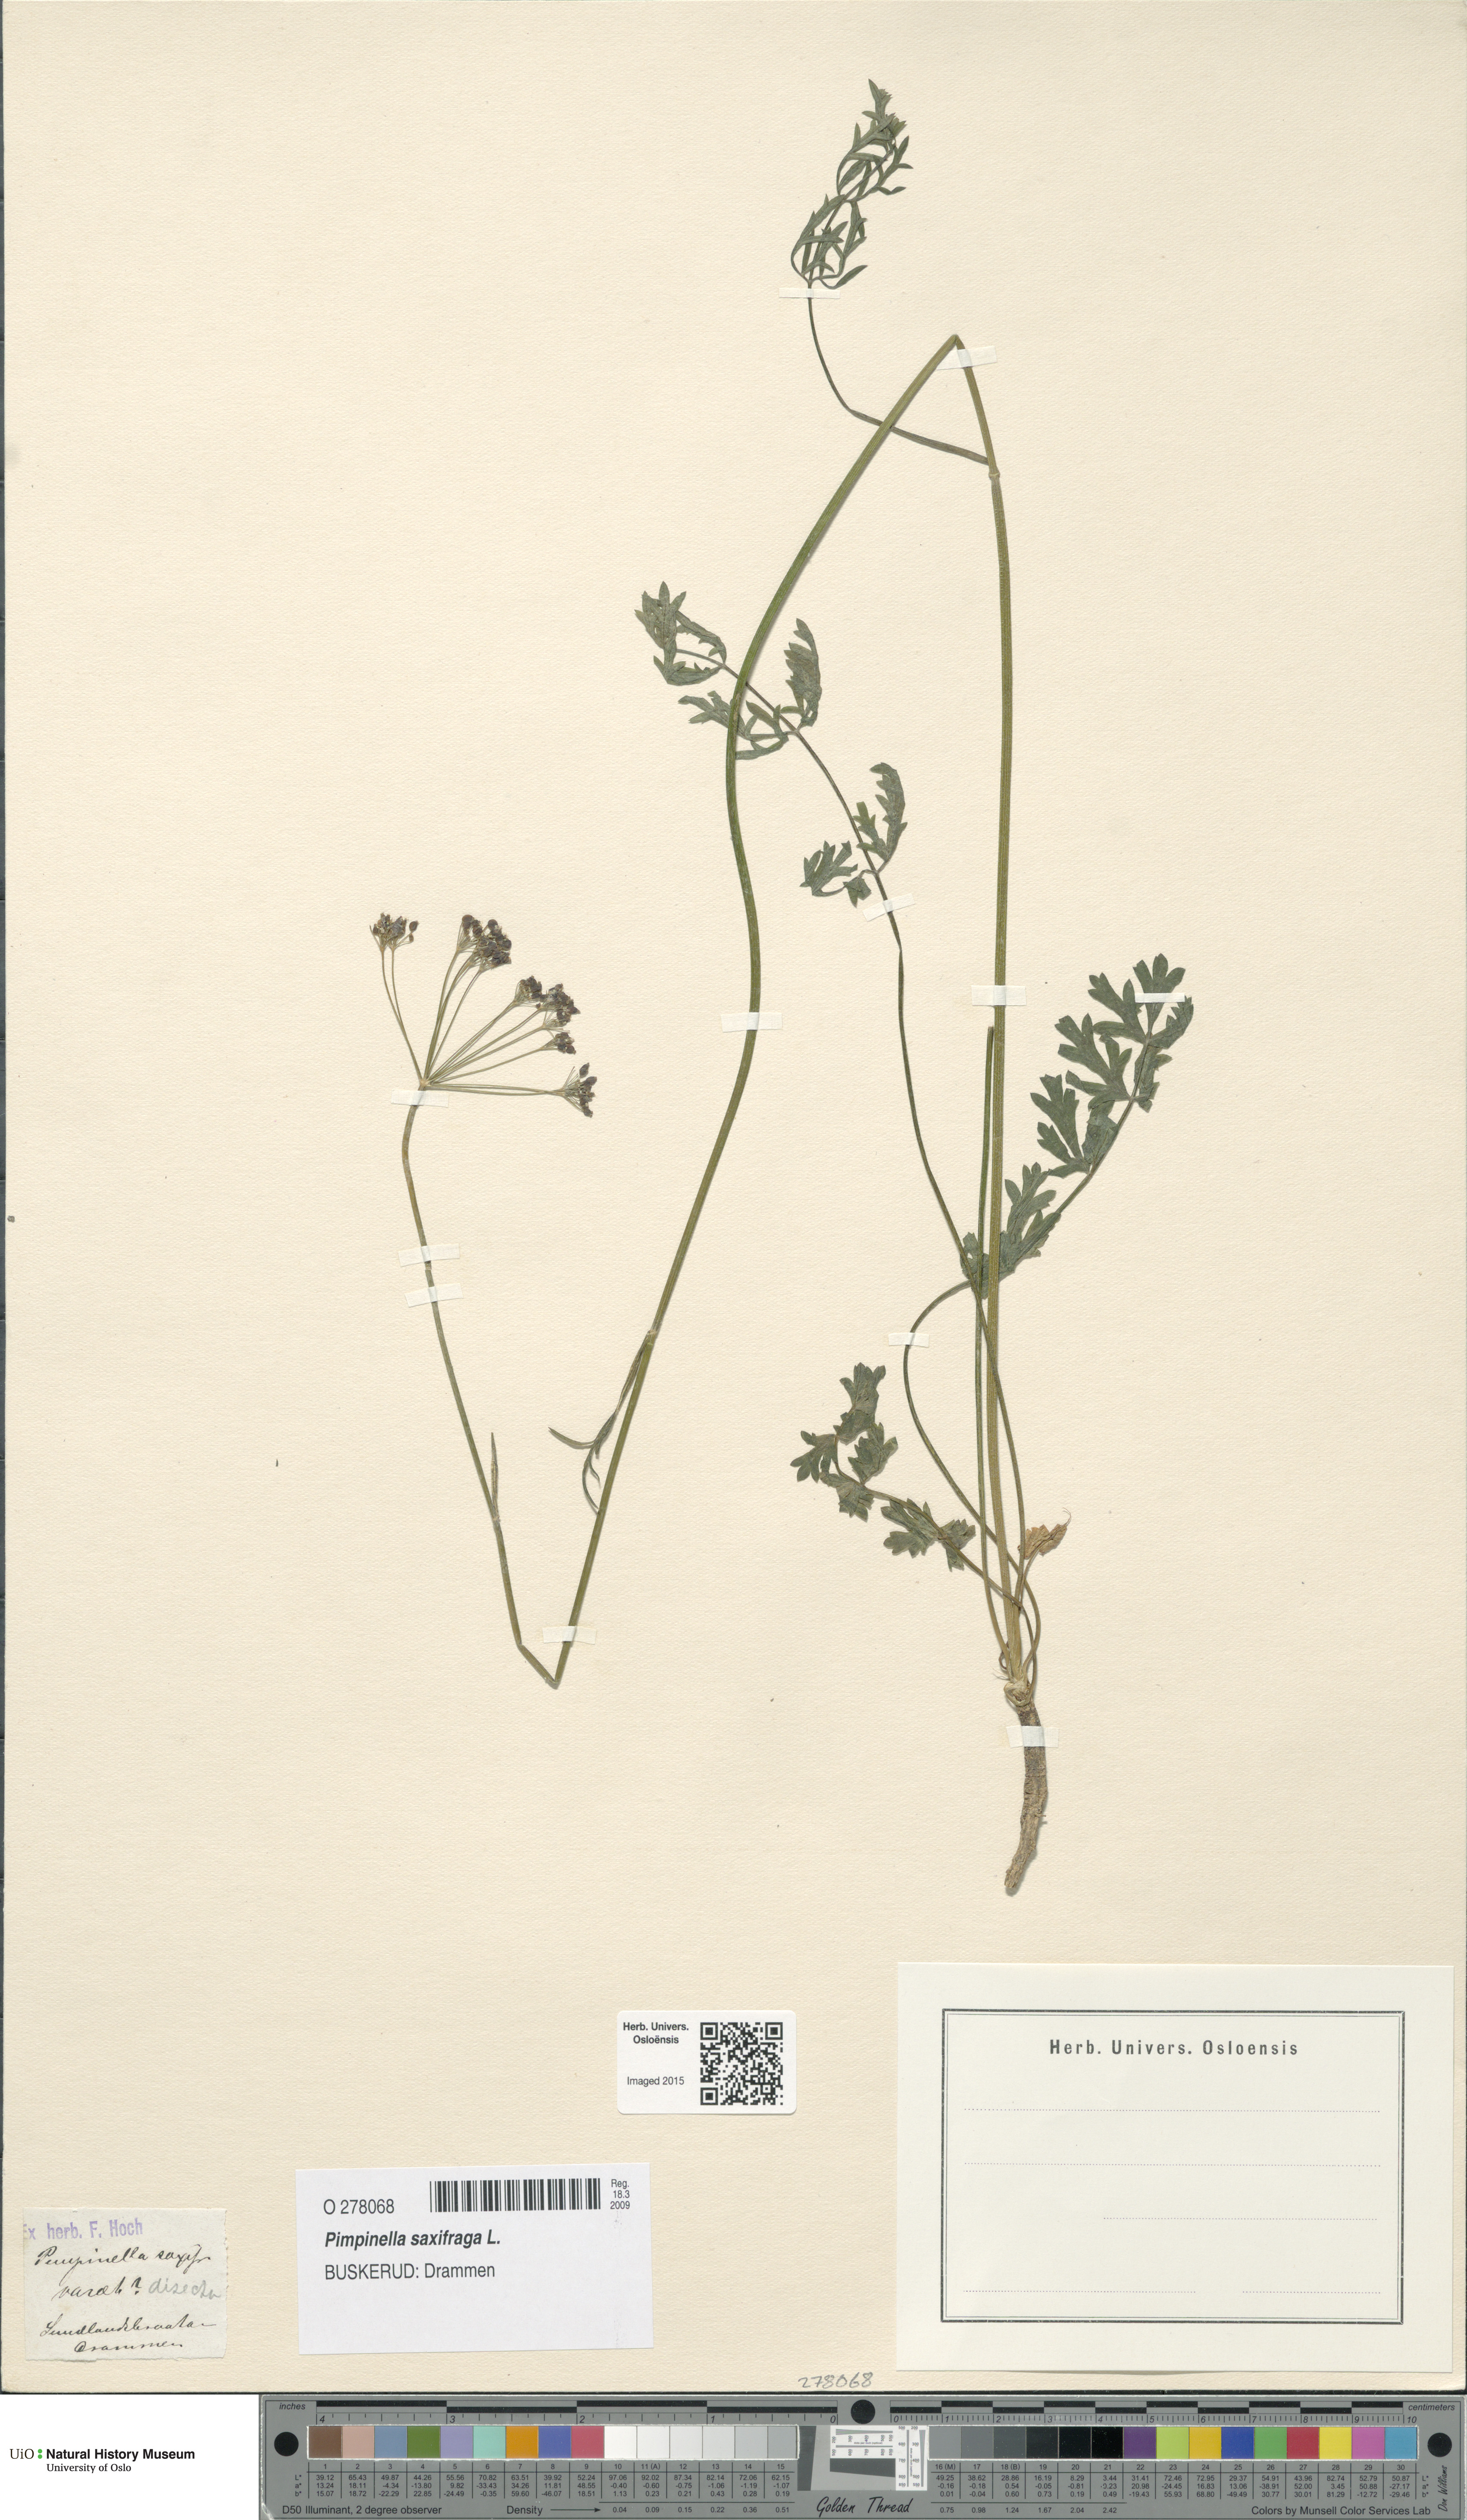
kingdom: Plantae
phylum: Tracheophyta
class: Magnoliopsida
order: Apiales
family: Apiaceae
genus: Pimpinella
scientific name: Pimpinella saxifraga
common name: Burnet-saxifrage
